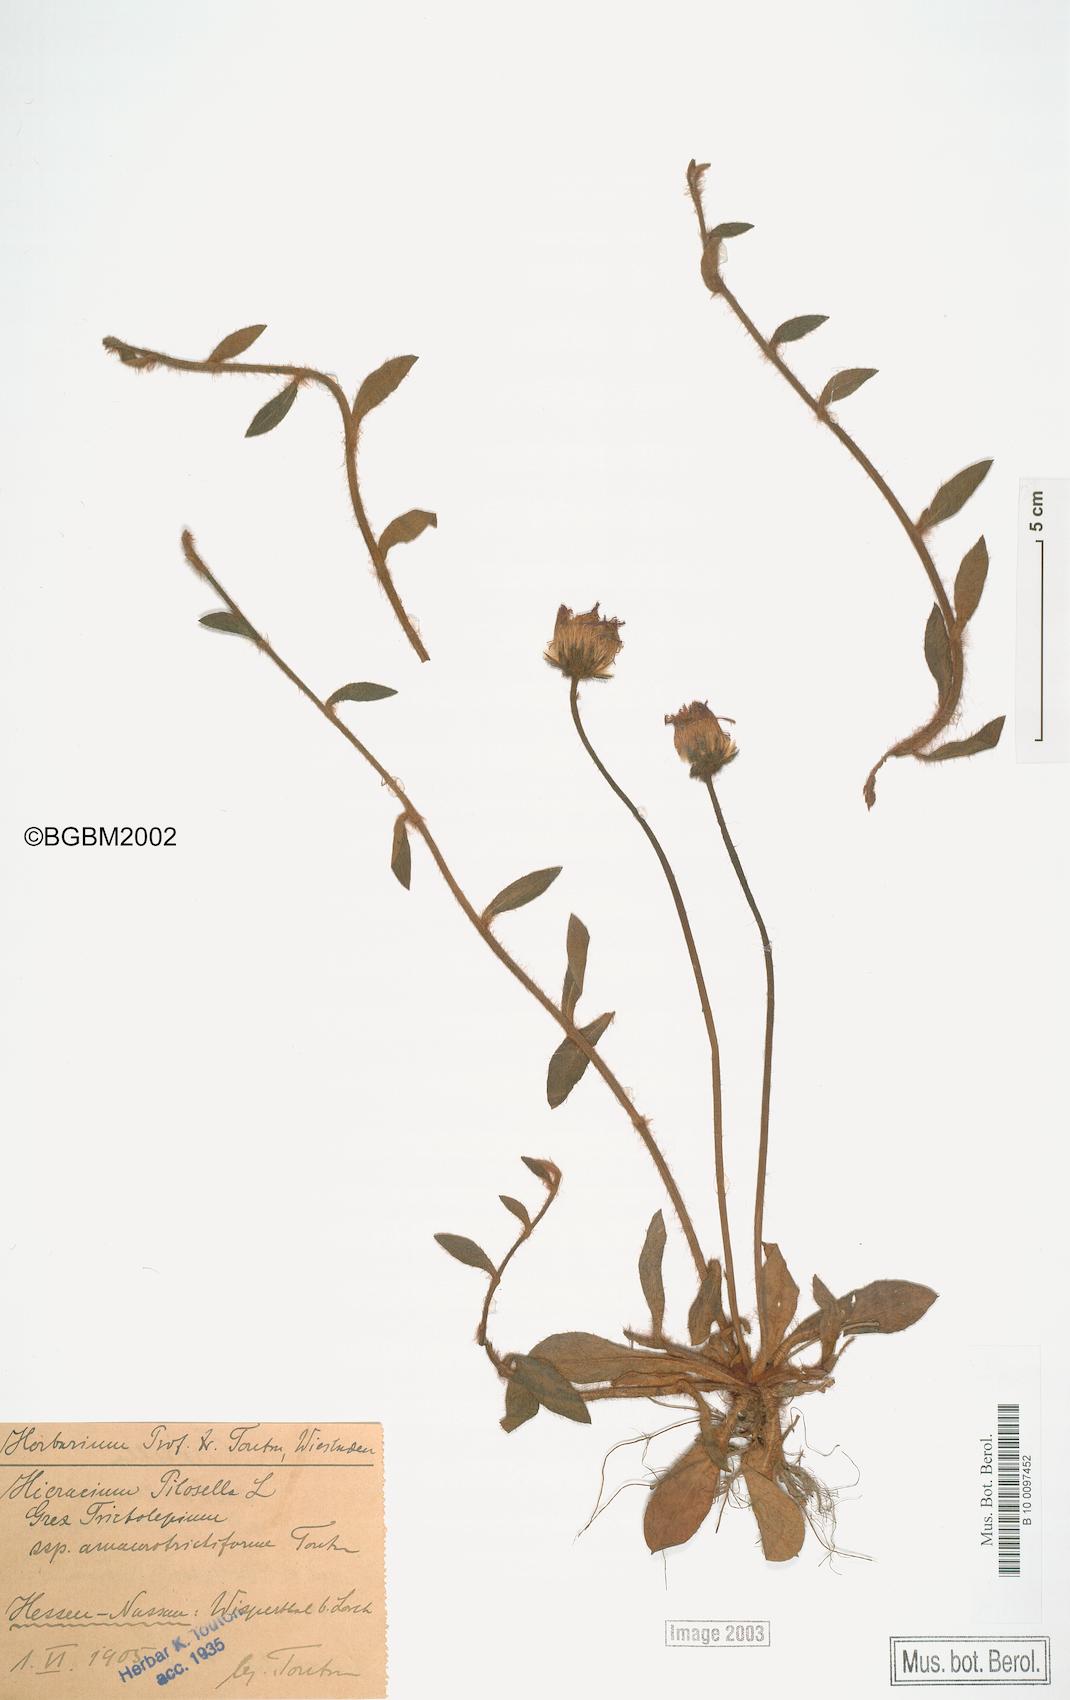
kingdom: Plantae
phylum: Tracheophyta
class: Magnoliopsida
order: Asterales
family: Asteraceae
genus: Pilosella
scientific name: Pilosella officinarum
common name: Mouse-ear hawkweed
